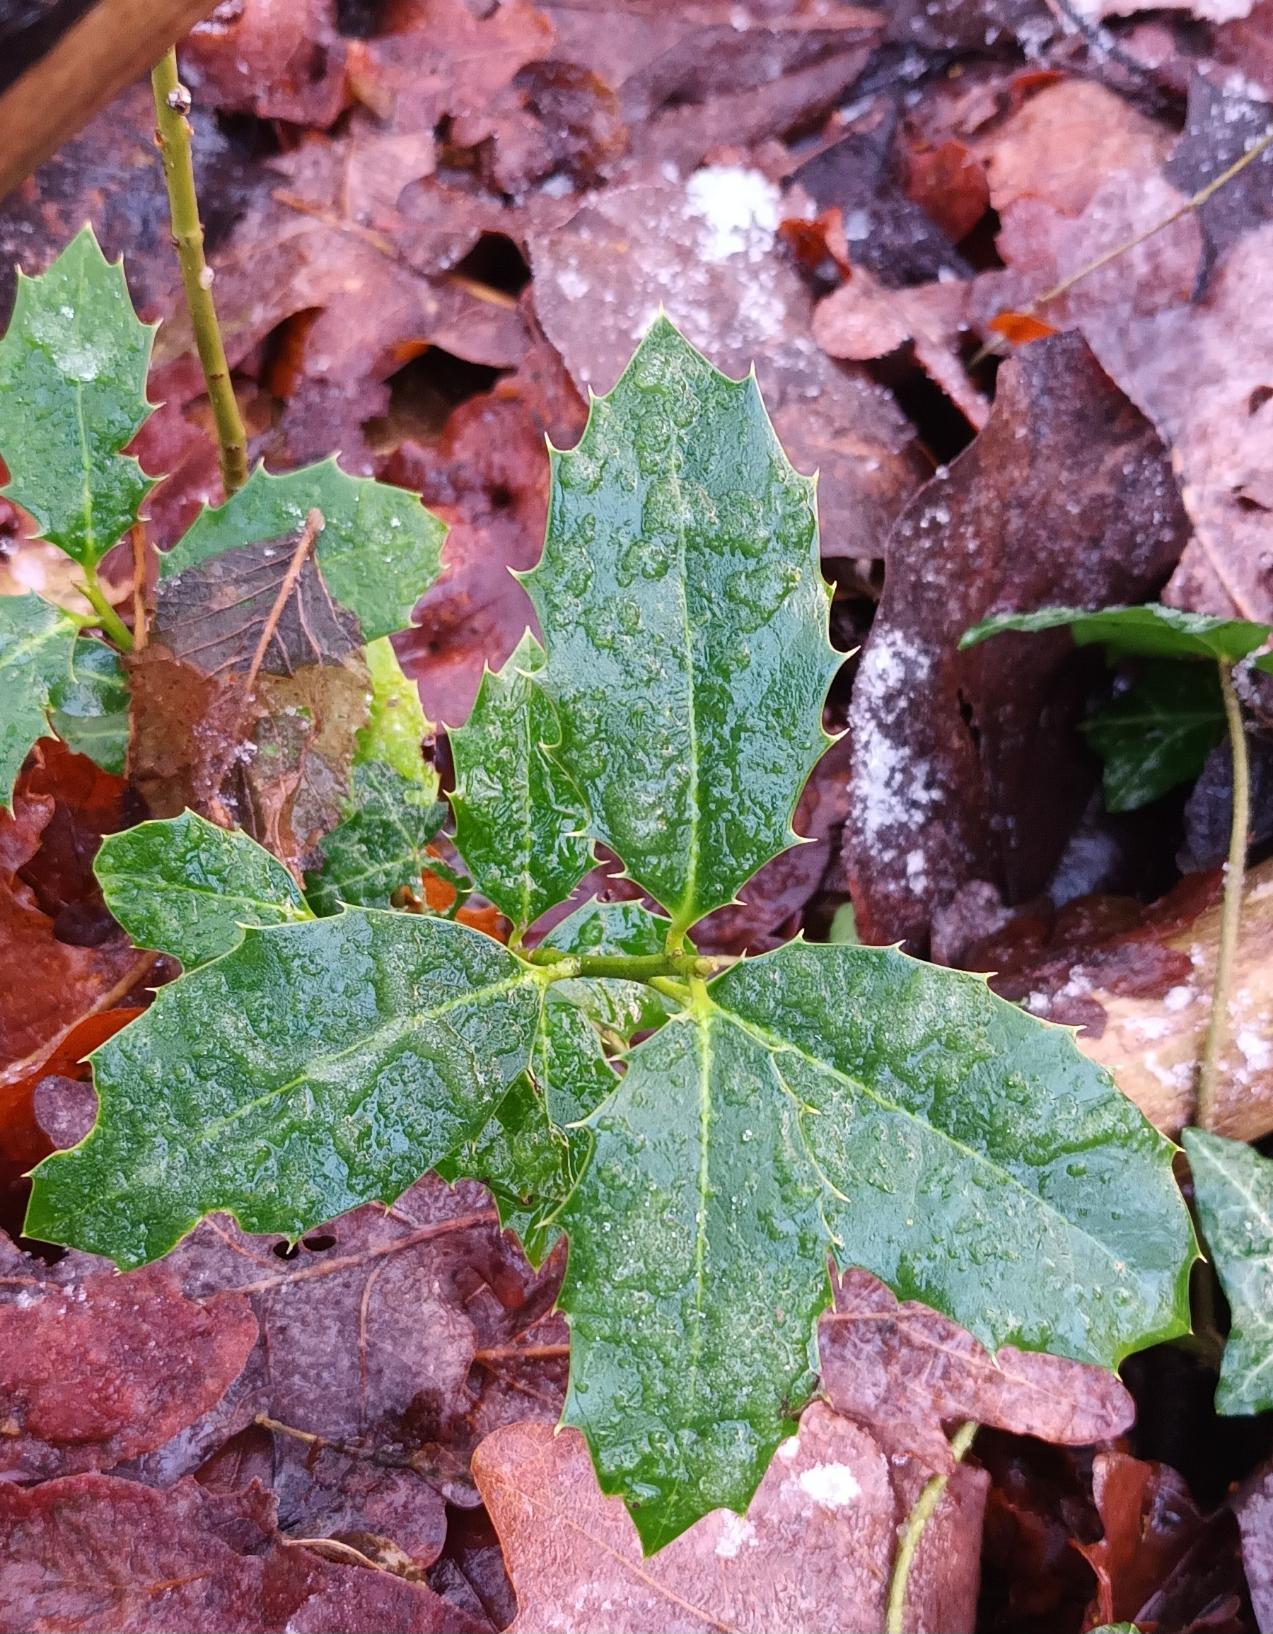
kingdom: Plantae
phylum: Tracheophyta
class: Magnoliopsida
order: Aquifoliales
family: Aquifoliaceae
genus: Ilex
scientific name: Ilex aquifolium
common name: Kristtorn
